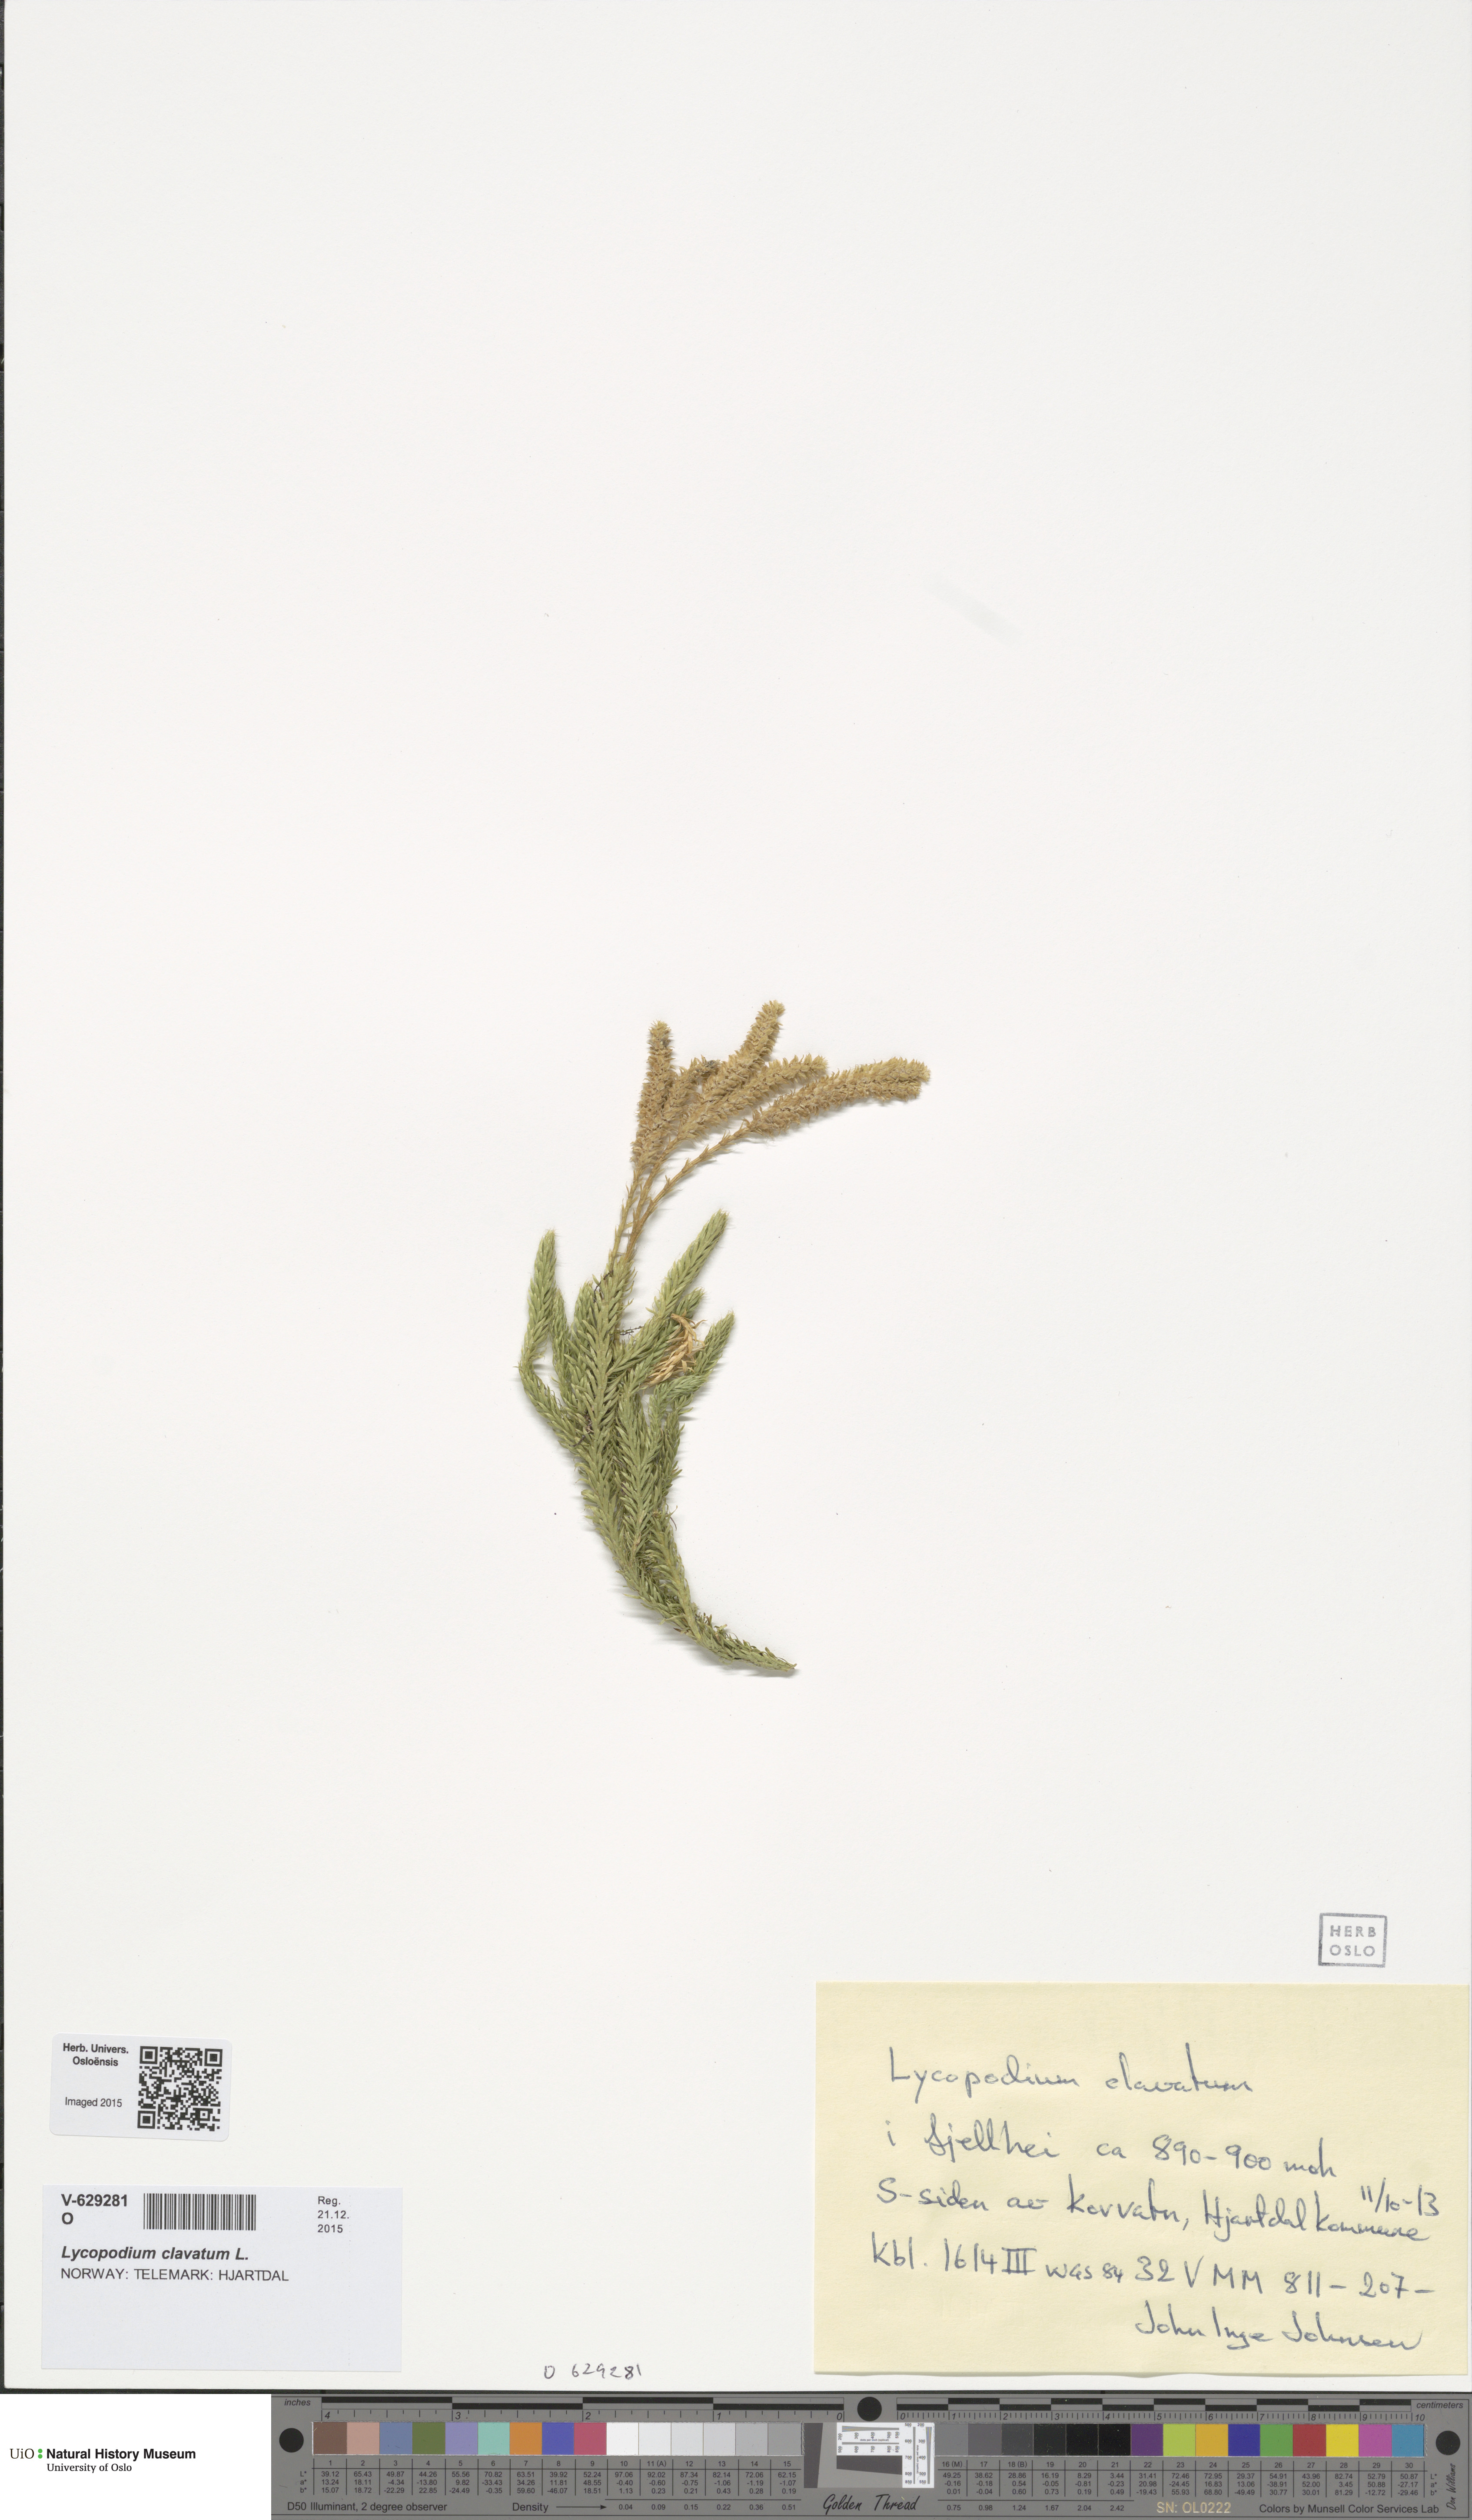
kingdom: Plantae
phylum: Tracheophyta
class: Lycopodiopsida
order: Lycopodiales
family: Lycopodiaceae
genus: Lycopodium
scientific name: Lycopodium clavatum
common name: Stag's-horn clubmoss
